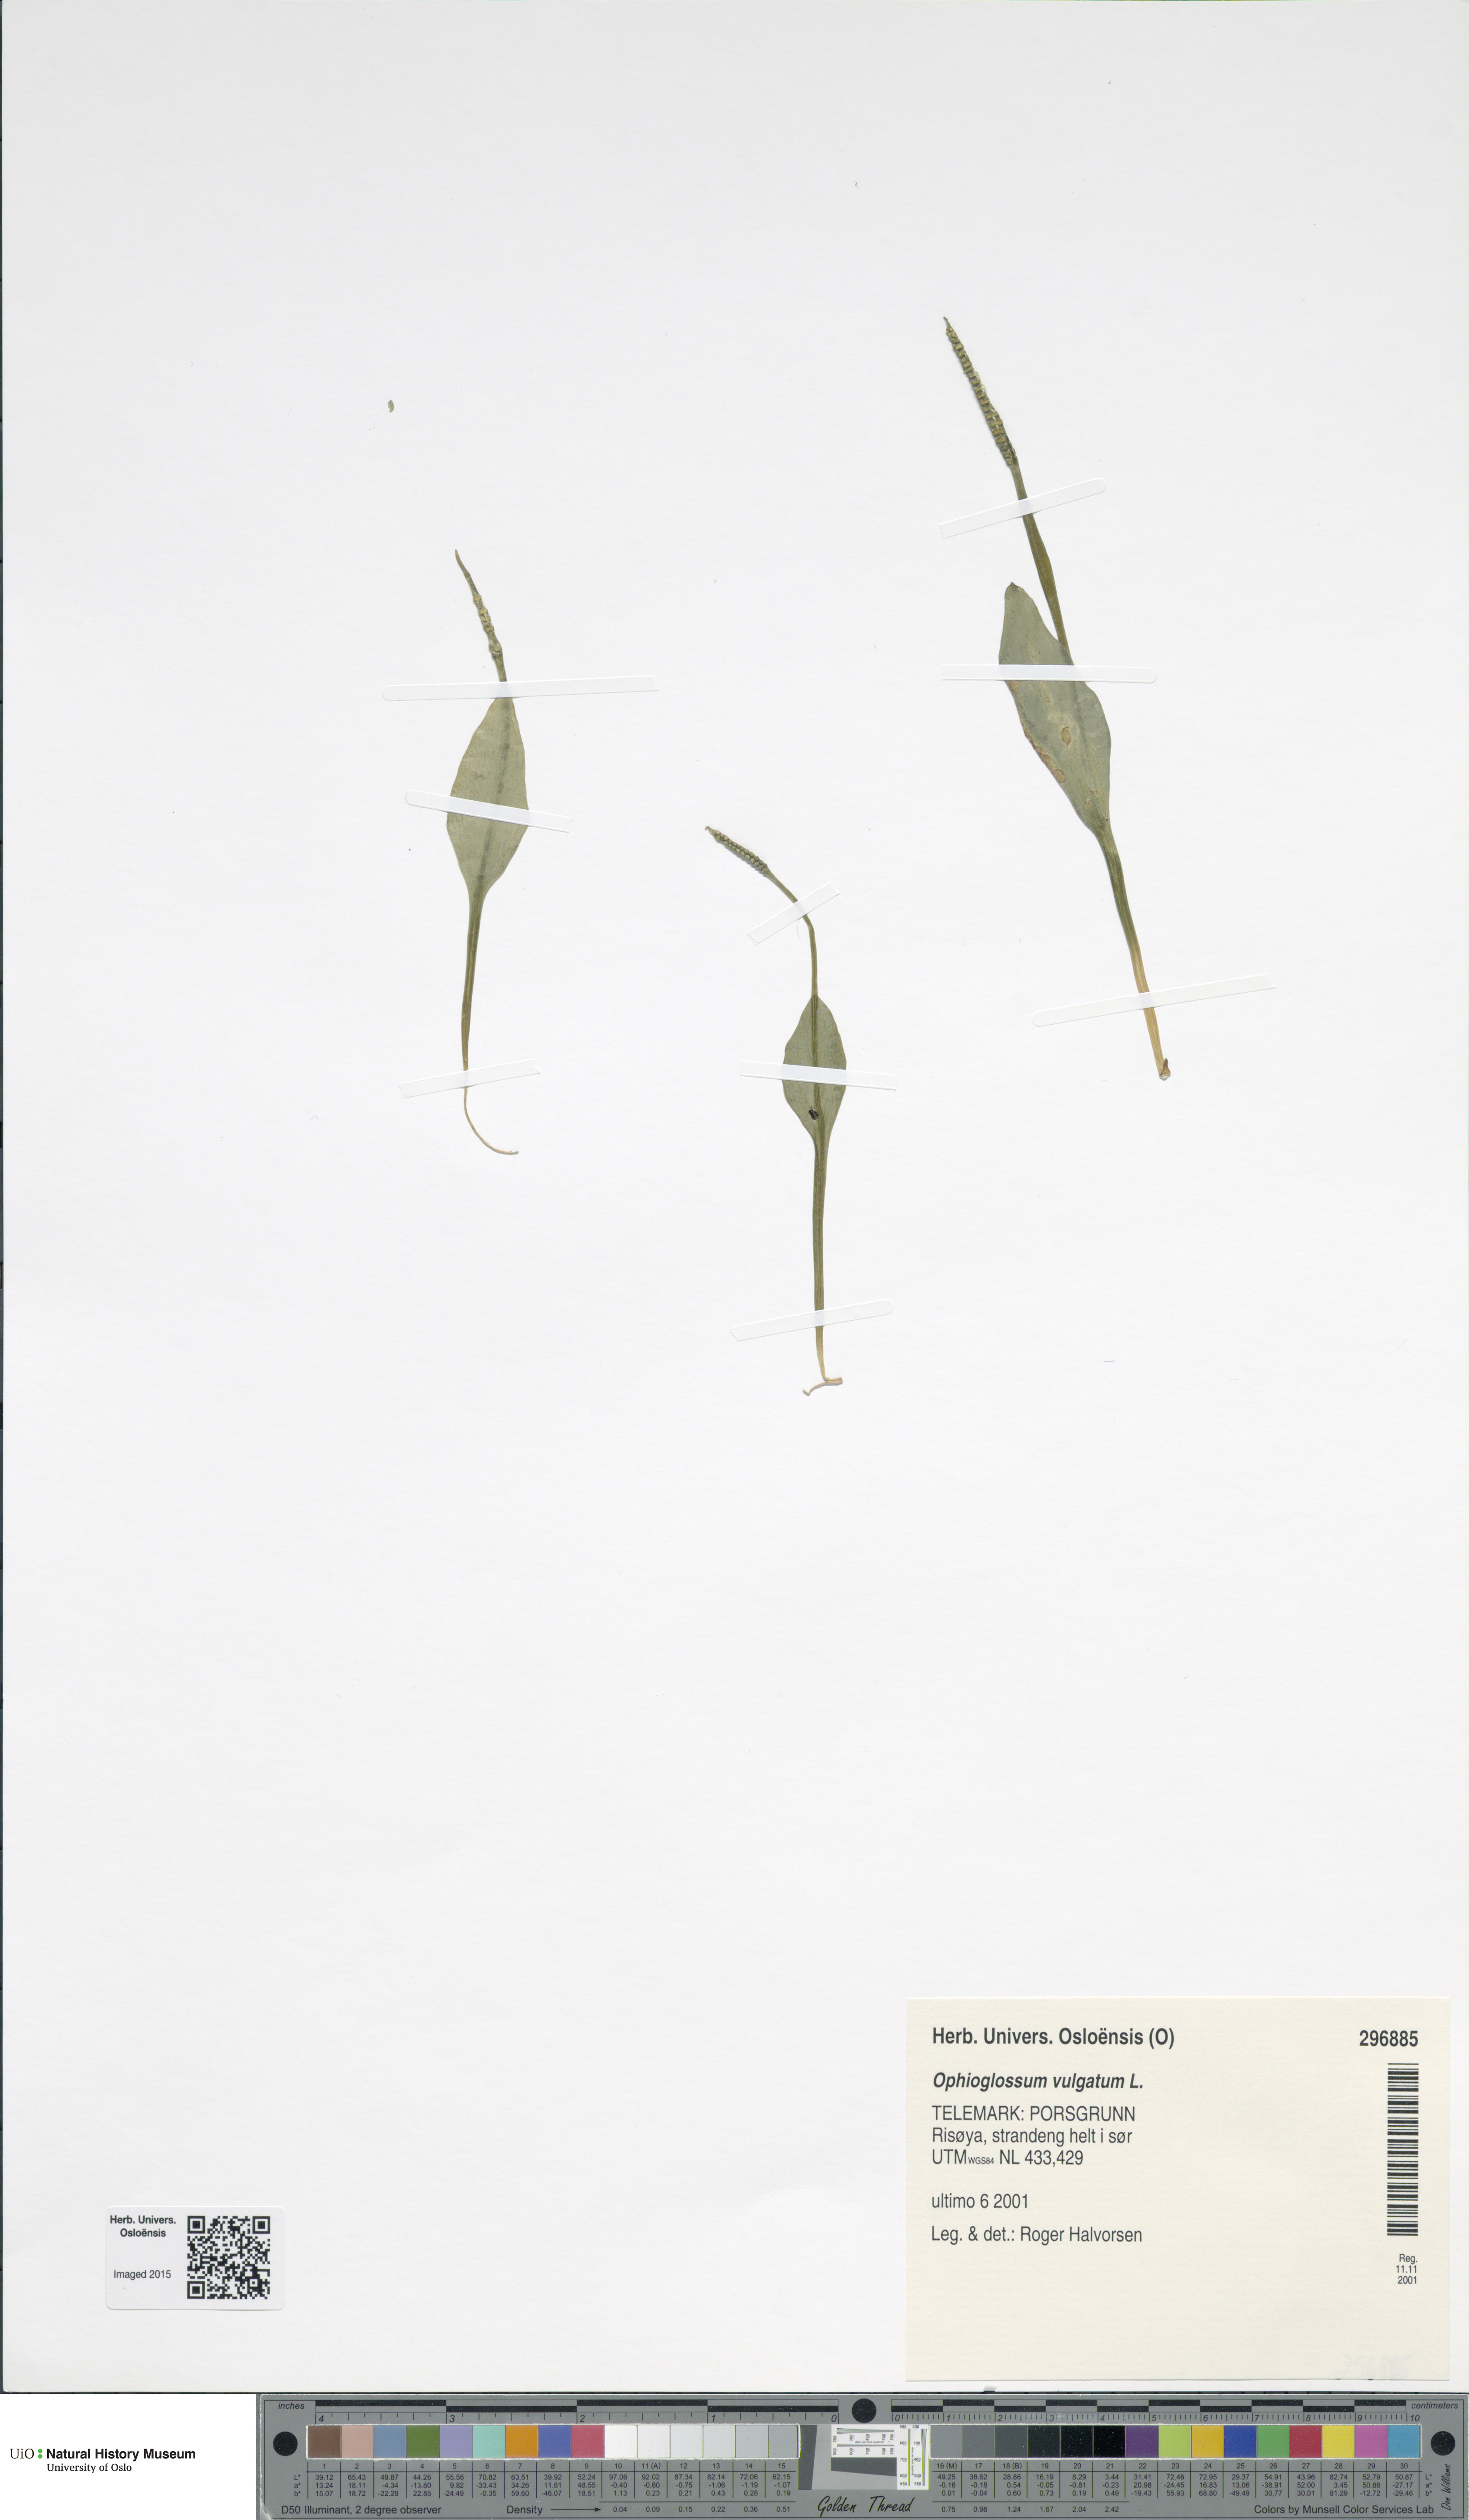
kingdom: Plantae
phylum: Tracheophyta
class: Polypodiopsida
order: Ophioglossales
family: Ophioglossaceae
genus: Ophioglossum
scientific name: Ophioglossum vulgatum
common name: Adder's-tongue
